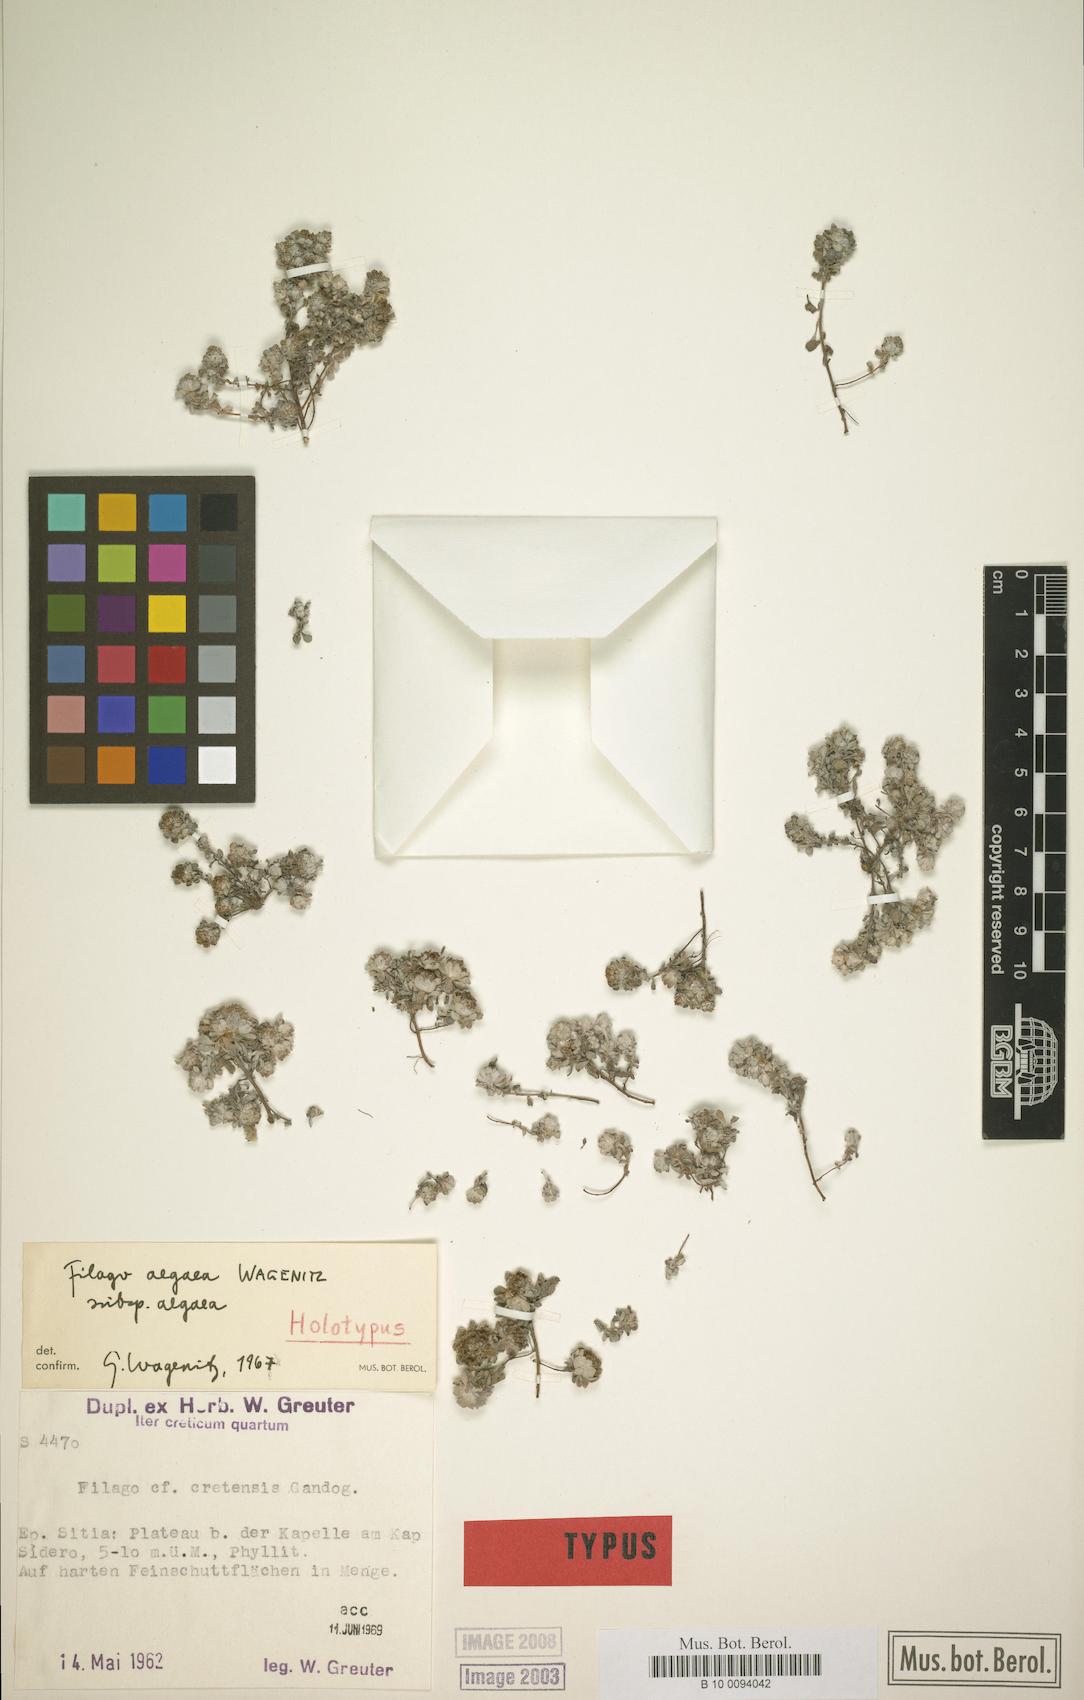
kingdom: Plantae
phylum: Tracheophyta
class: Magnoliopsida
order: Asterales
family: Asteraceae
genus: Filago
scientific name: Filago aegaea
